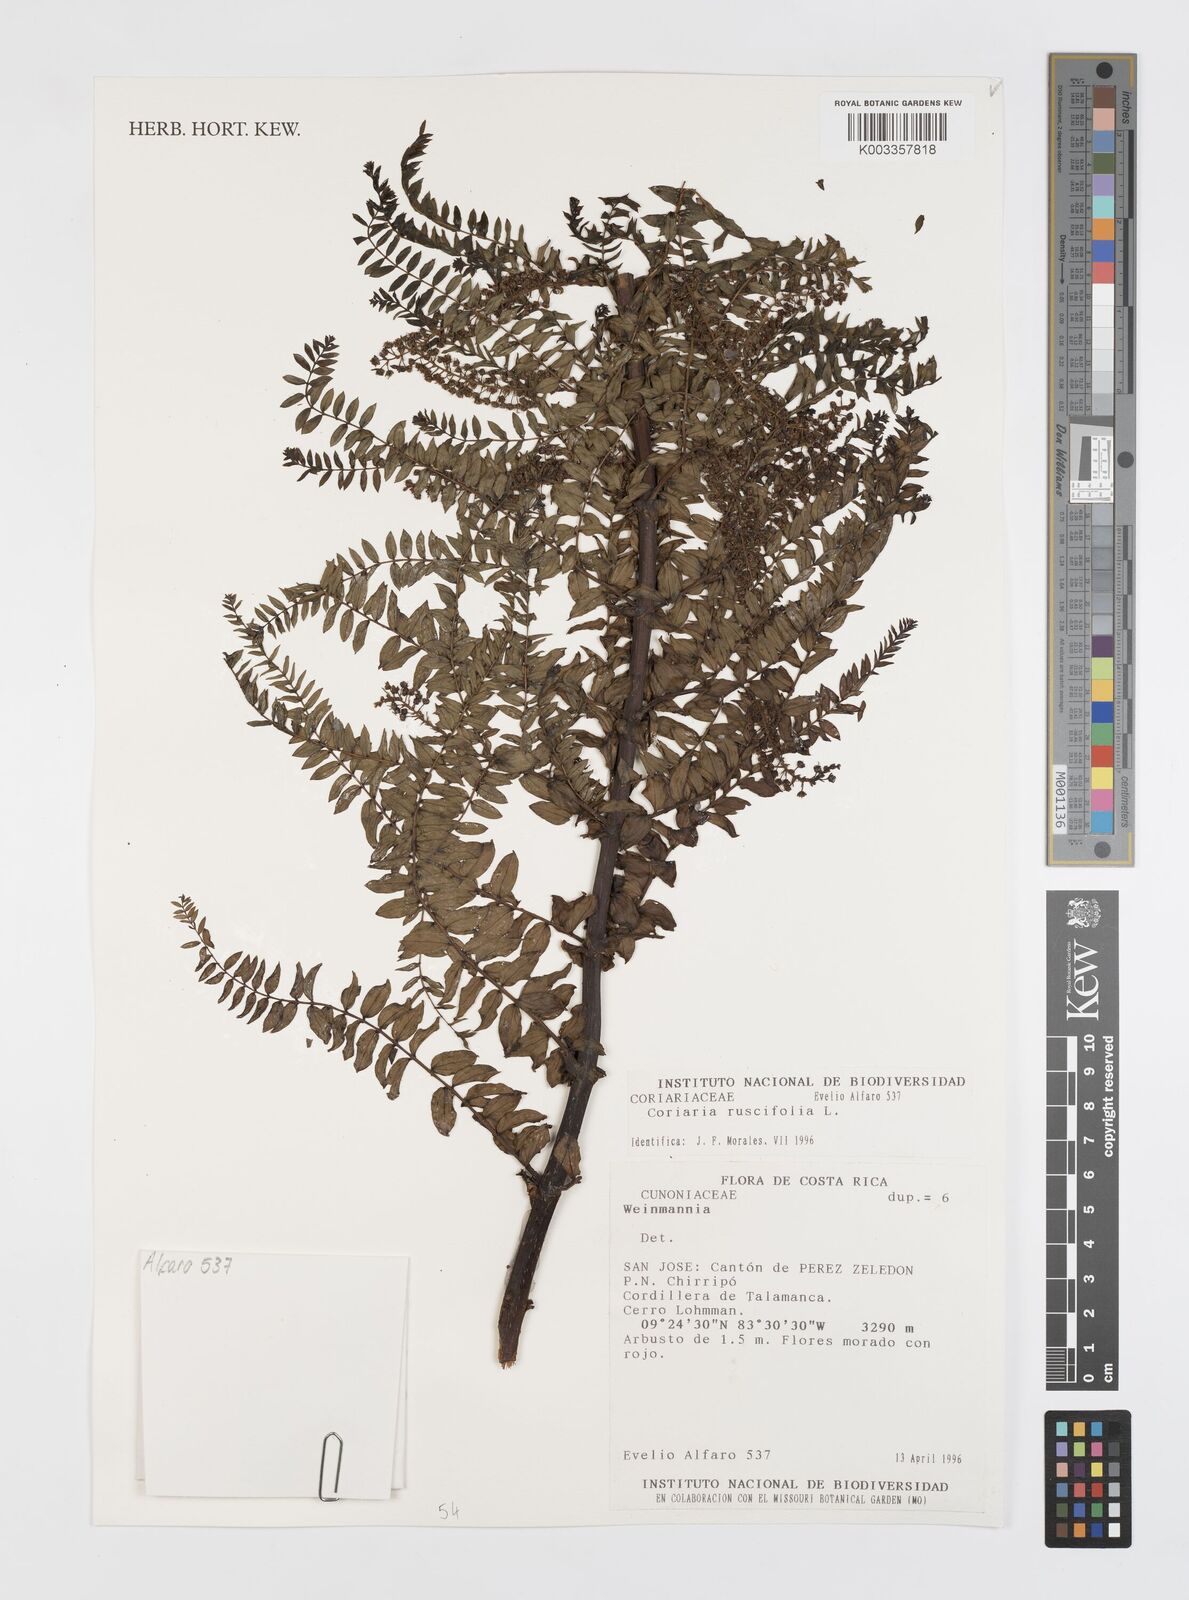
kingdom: Plantae
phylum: Tracheophyta
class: Magnoliopsida
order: Cucurbitales
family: Coriariaceae
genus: Coriaria
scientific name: Coriaria ruscifolia
